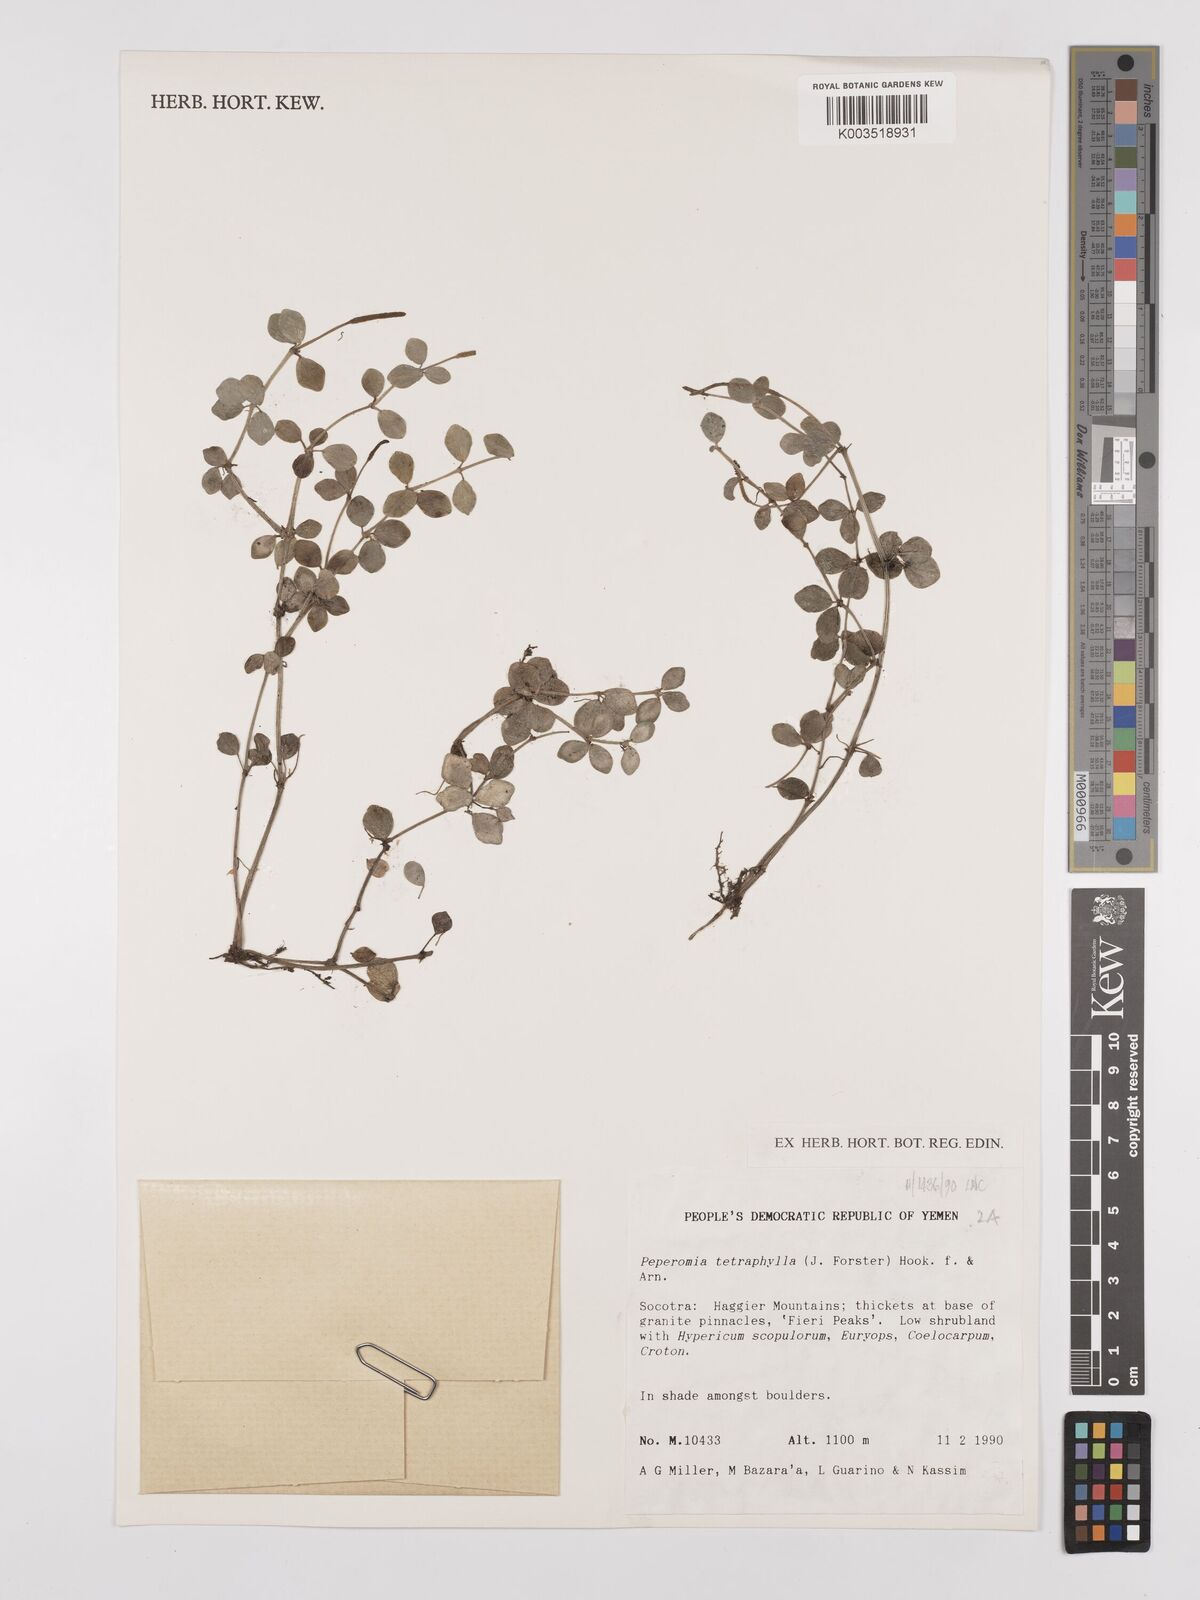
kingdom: Plantae
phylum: Tracheophyta
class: Magnoliopsida
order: Piperales
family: Piperaceae
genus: Peperomia
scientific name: Peperomia tetraphylla
